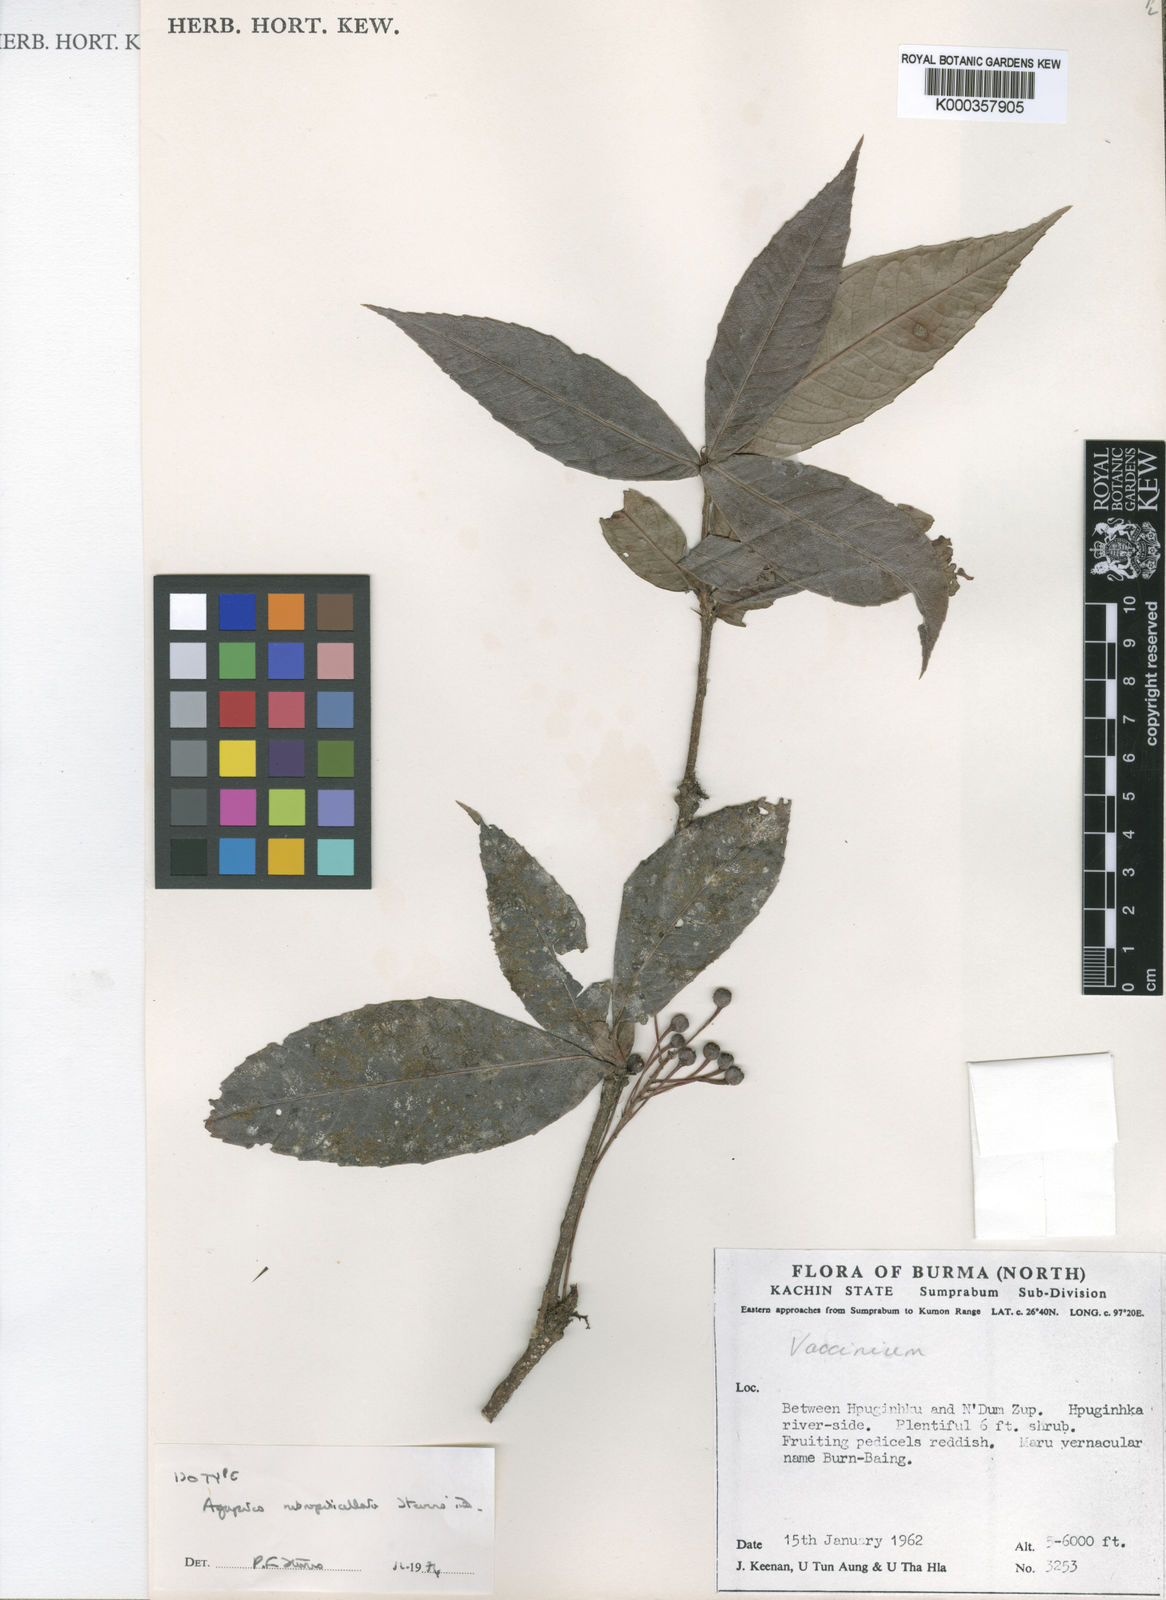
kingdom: Plantae
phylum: Tracheophyta
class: Magnoliopsida
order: Ericales
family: Ericaceae
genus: Agapetes
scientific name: Agapetes rubropedicellata
